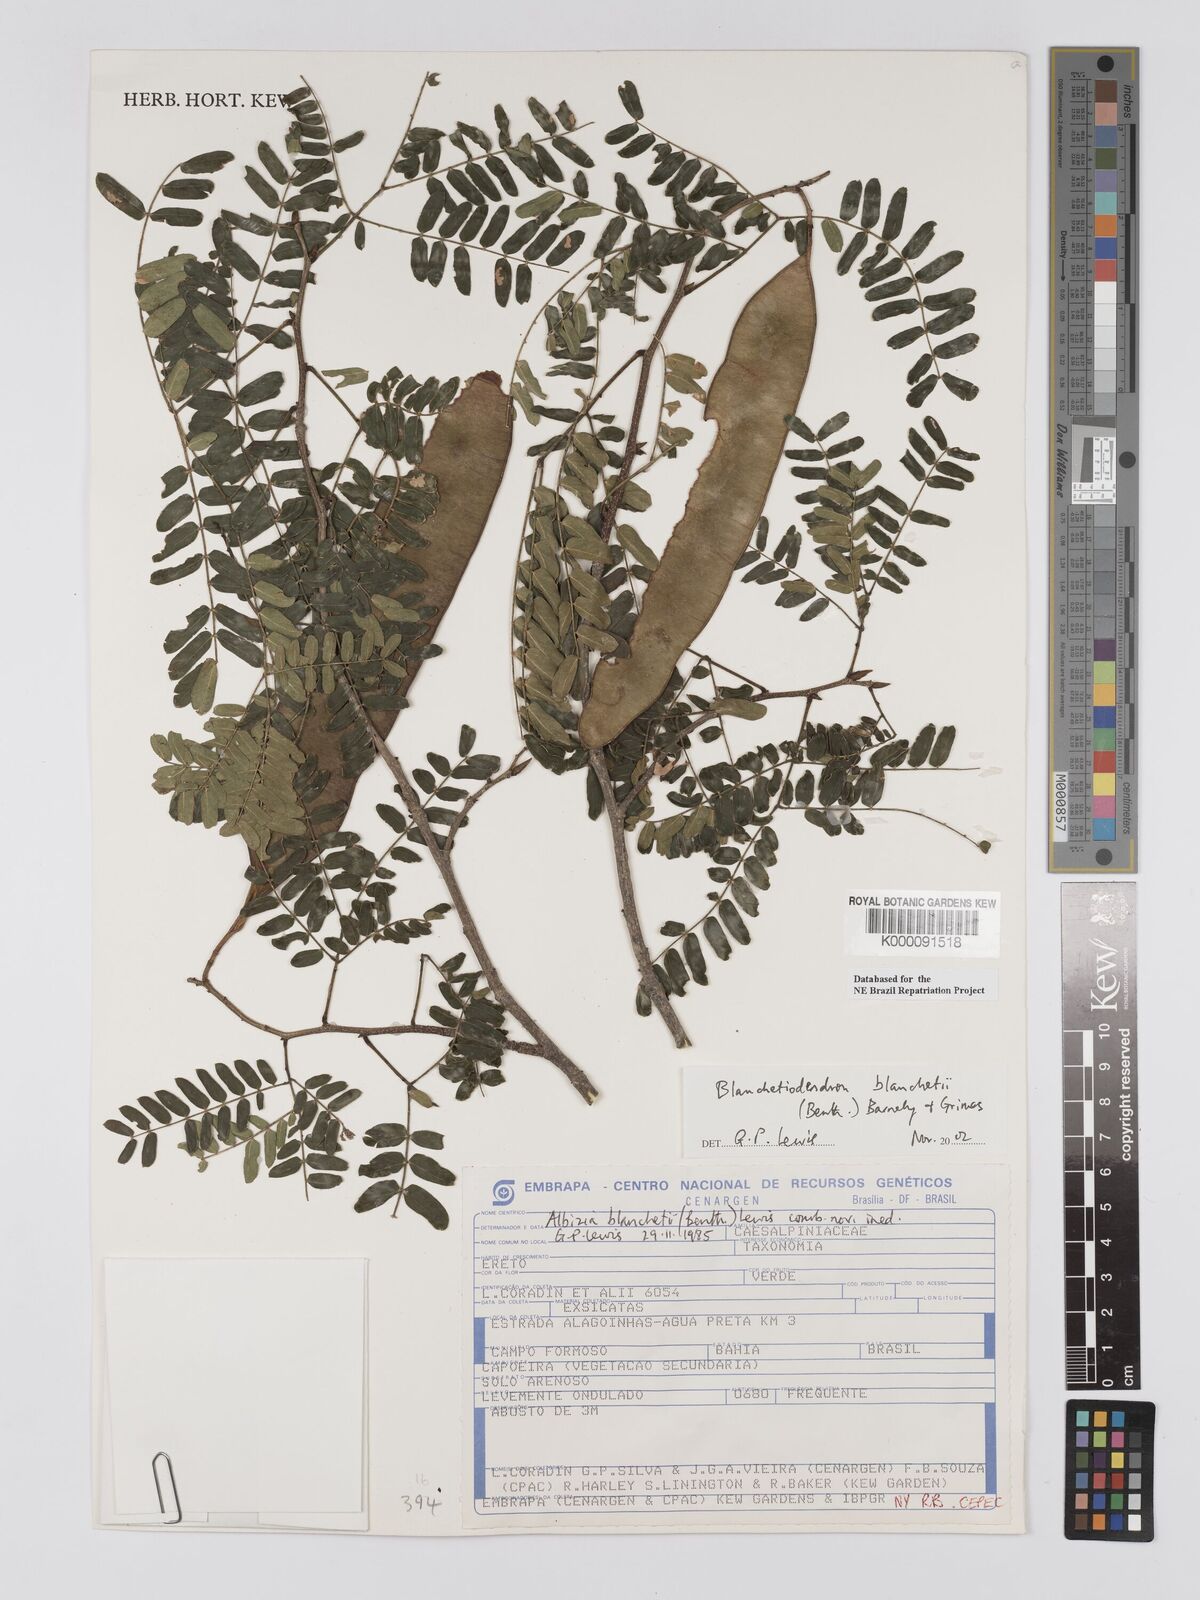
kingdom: Plantae
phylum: Tracheophyta
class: Magnoliopsida
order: Fabales
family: Fabaceae
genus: Blanchetiodendron
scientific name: Blanchetiodendron blanchetii
